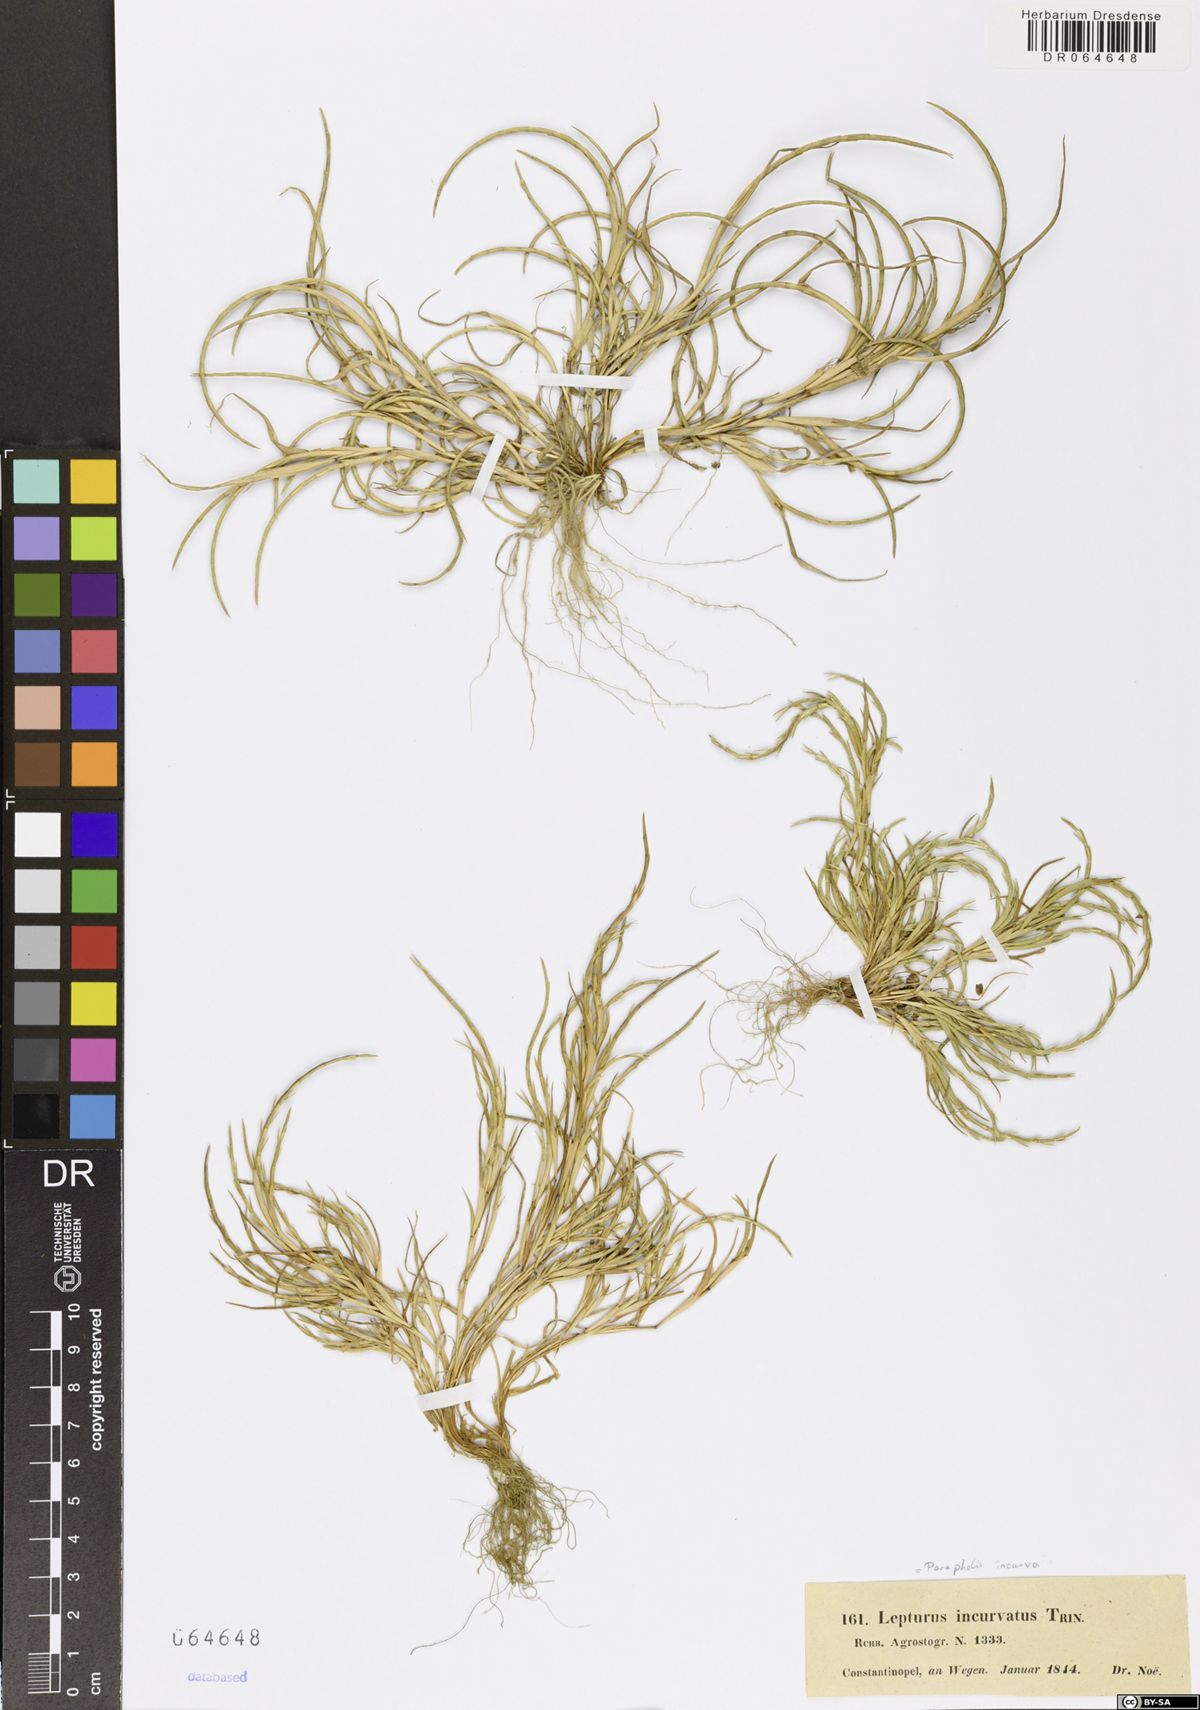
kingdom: Plantae
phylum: Tracheophyta
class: Liliopsida
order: Poales
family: Poaceae
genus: Parapholis
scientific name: Parapholis incurva
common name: Curved sicklegrass
